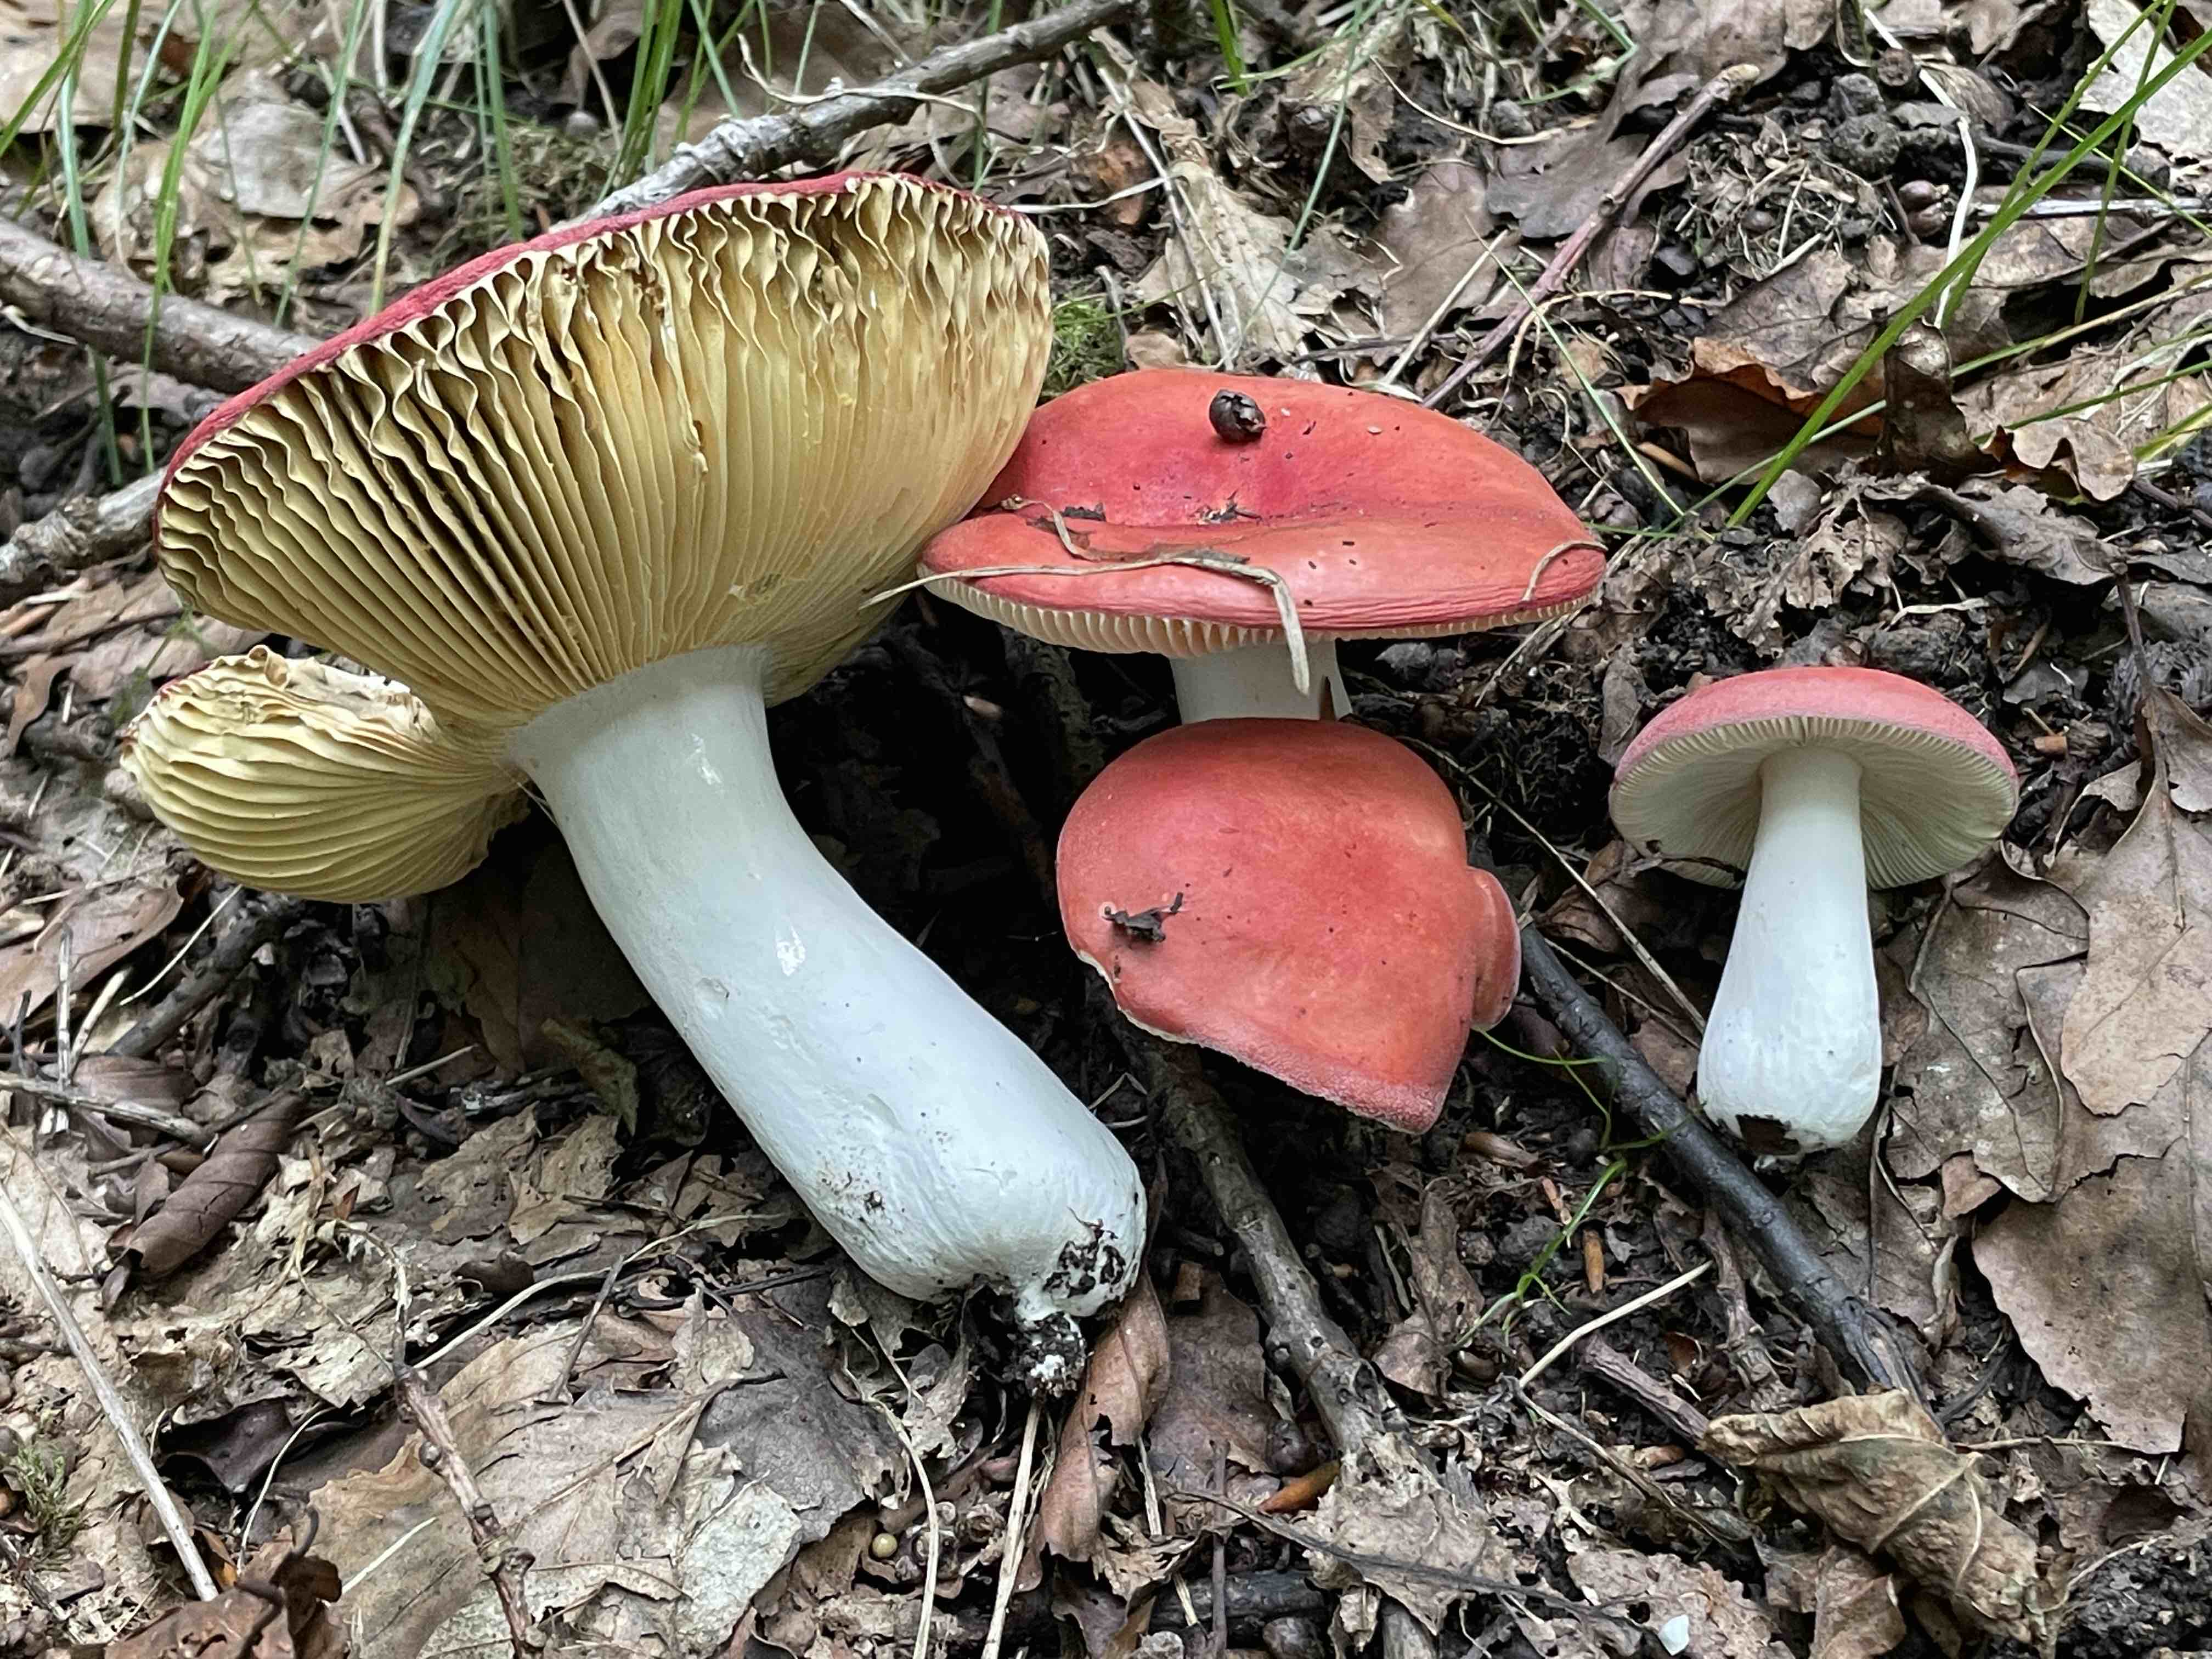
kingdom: Fungi
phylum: Basidiomycota
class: Agaricomycetes
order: Russulales
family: Russulaceae
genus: Russula
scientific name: Russula pseudointegra
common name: cinnoberrød skørhat
